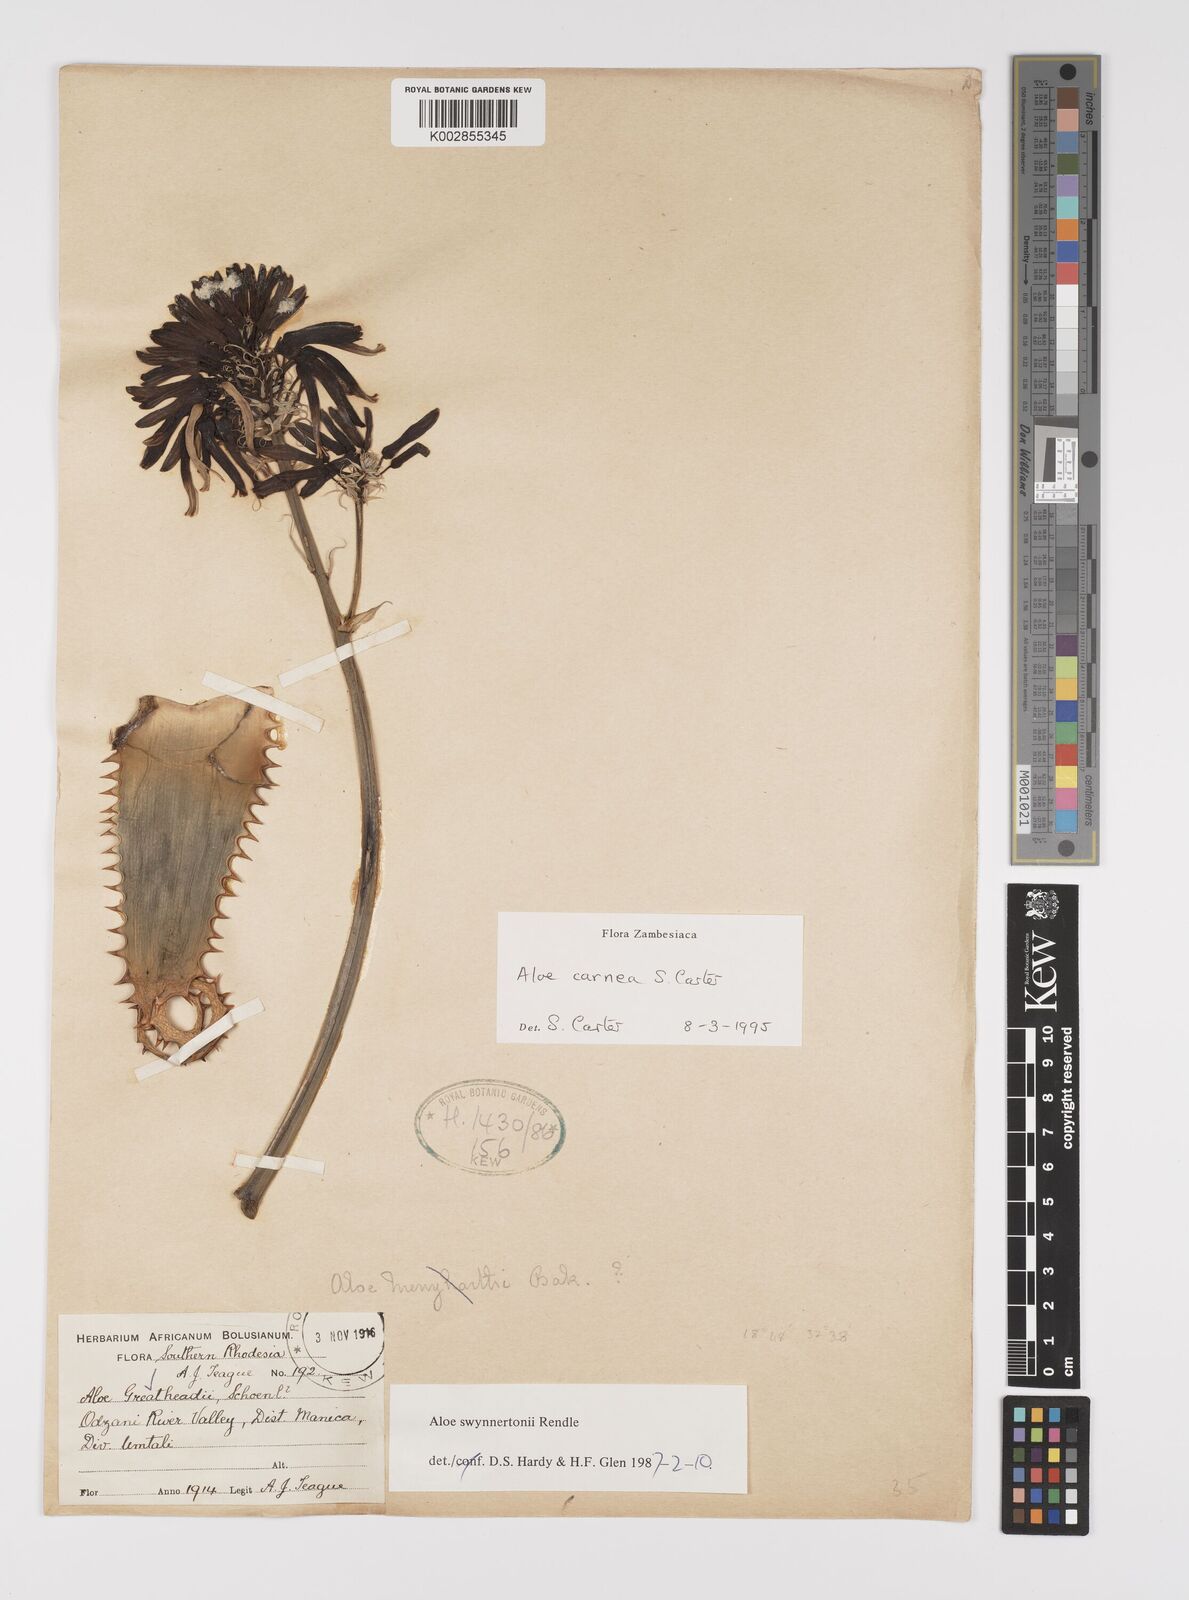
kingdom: Plantae
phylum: Tracheophyta
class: Liliopsida
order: Asparagales
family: Asphodelaceae
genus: Aloe
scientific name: Aloe carnea
